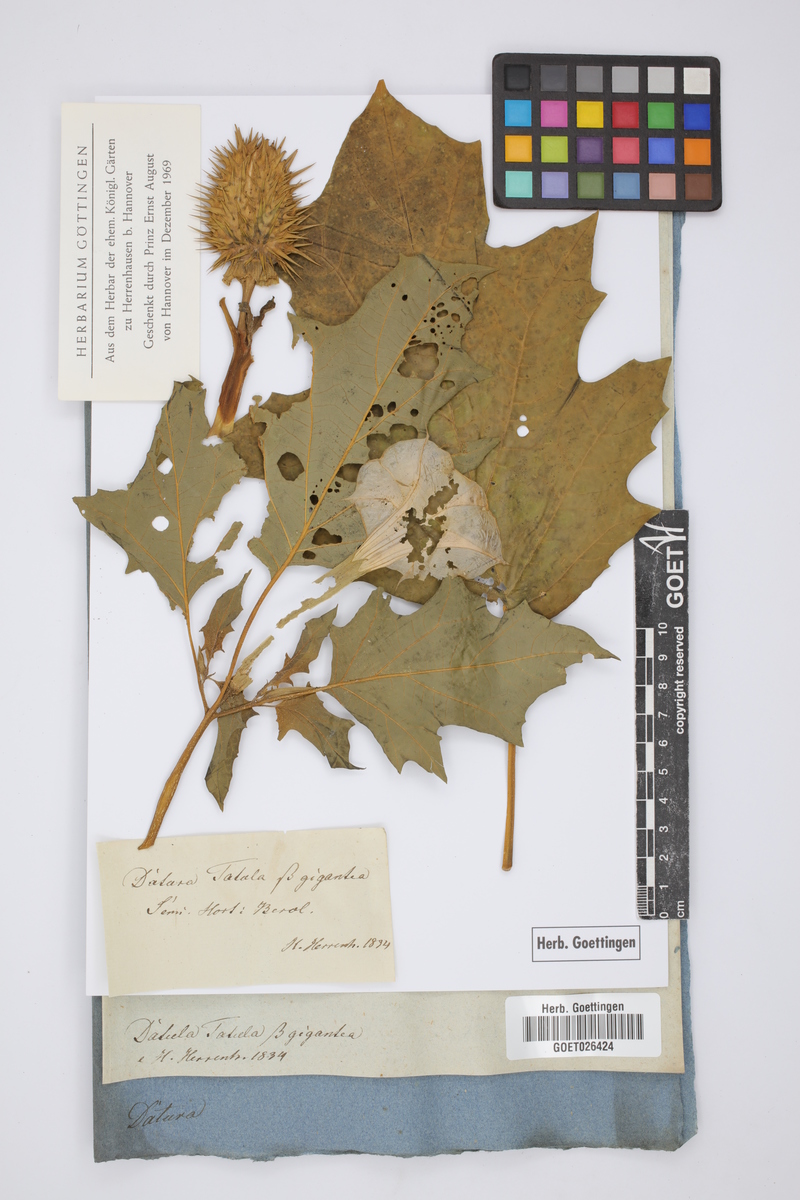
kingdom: Plantae
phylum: Tracheophyta
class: Magnoliopsida
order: Solanales
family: Solanaceae
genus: Datura
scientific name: Datura stramonium
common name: Thorn-apple
